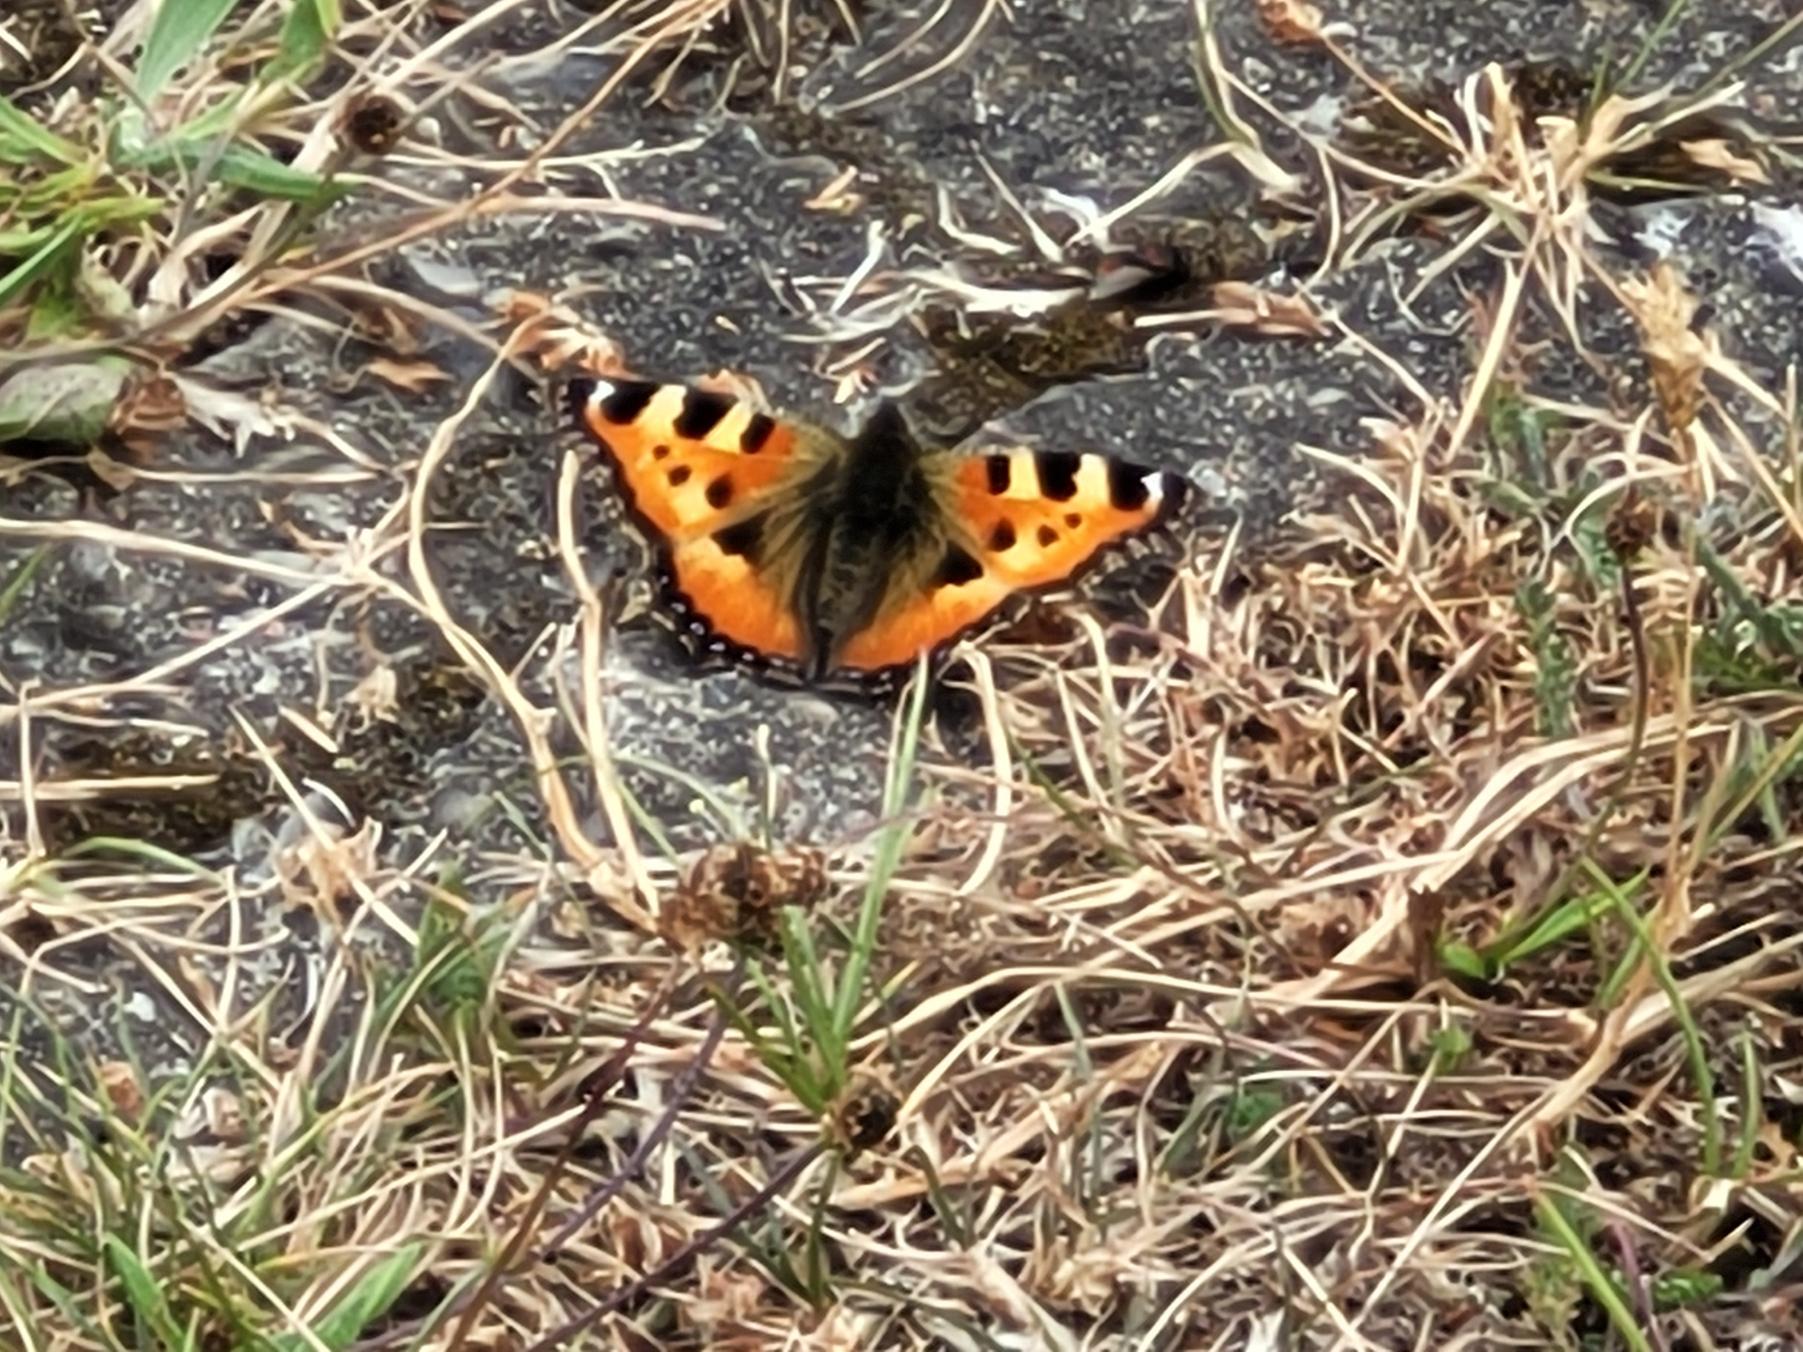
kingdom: Animalia
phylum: Arthropoda
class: Insecta
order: Lepidoptera
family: Nymphalidae
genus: Aglais
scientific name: Aglais urticae
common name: Nældens takvinge
